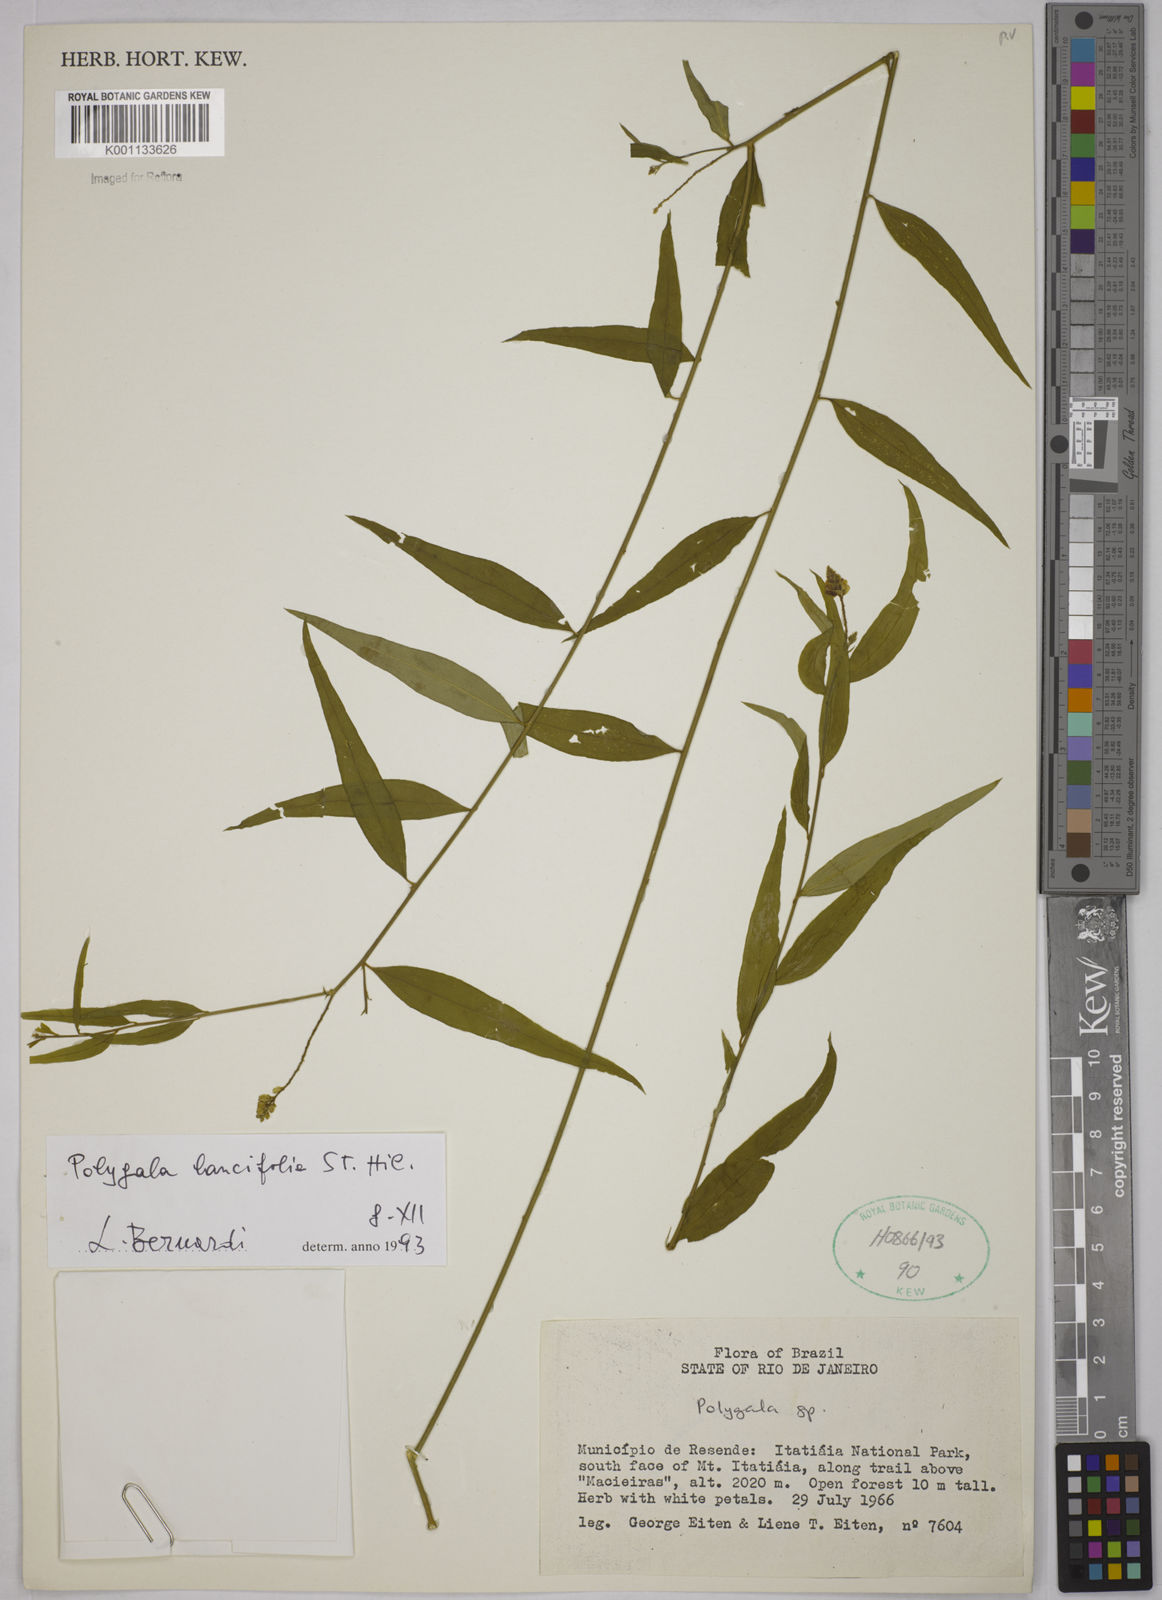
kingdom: Plantae
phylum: Tracheophyta
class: Magnoliopsida
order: Fabales
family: Polygalaceae
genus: Polygala
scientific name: Polygala lancifolia
